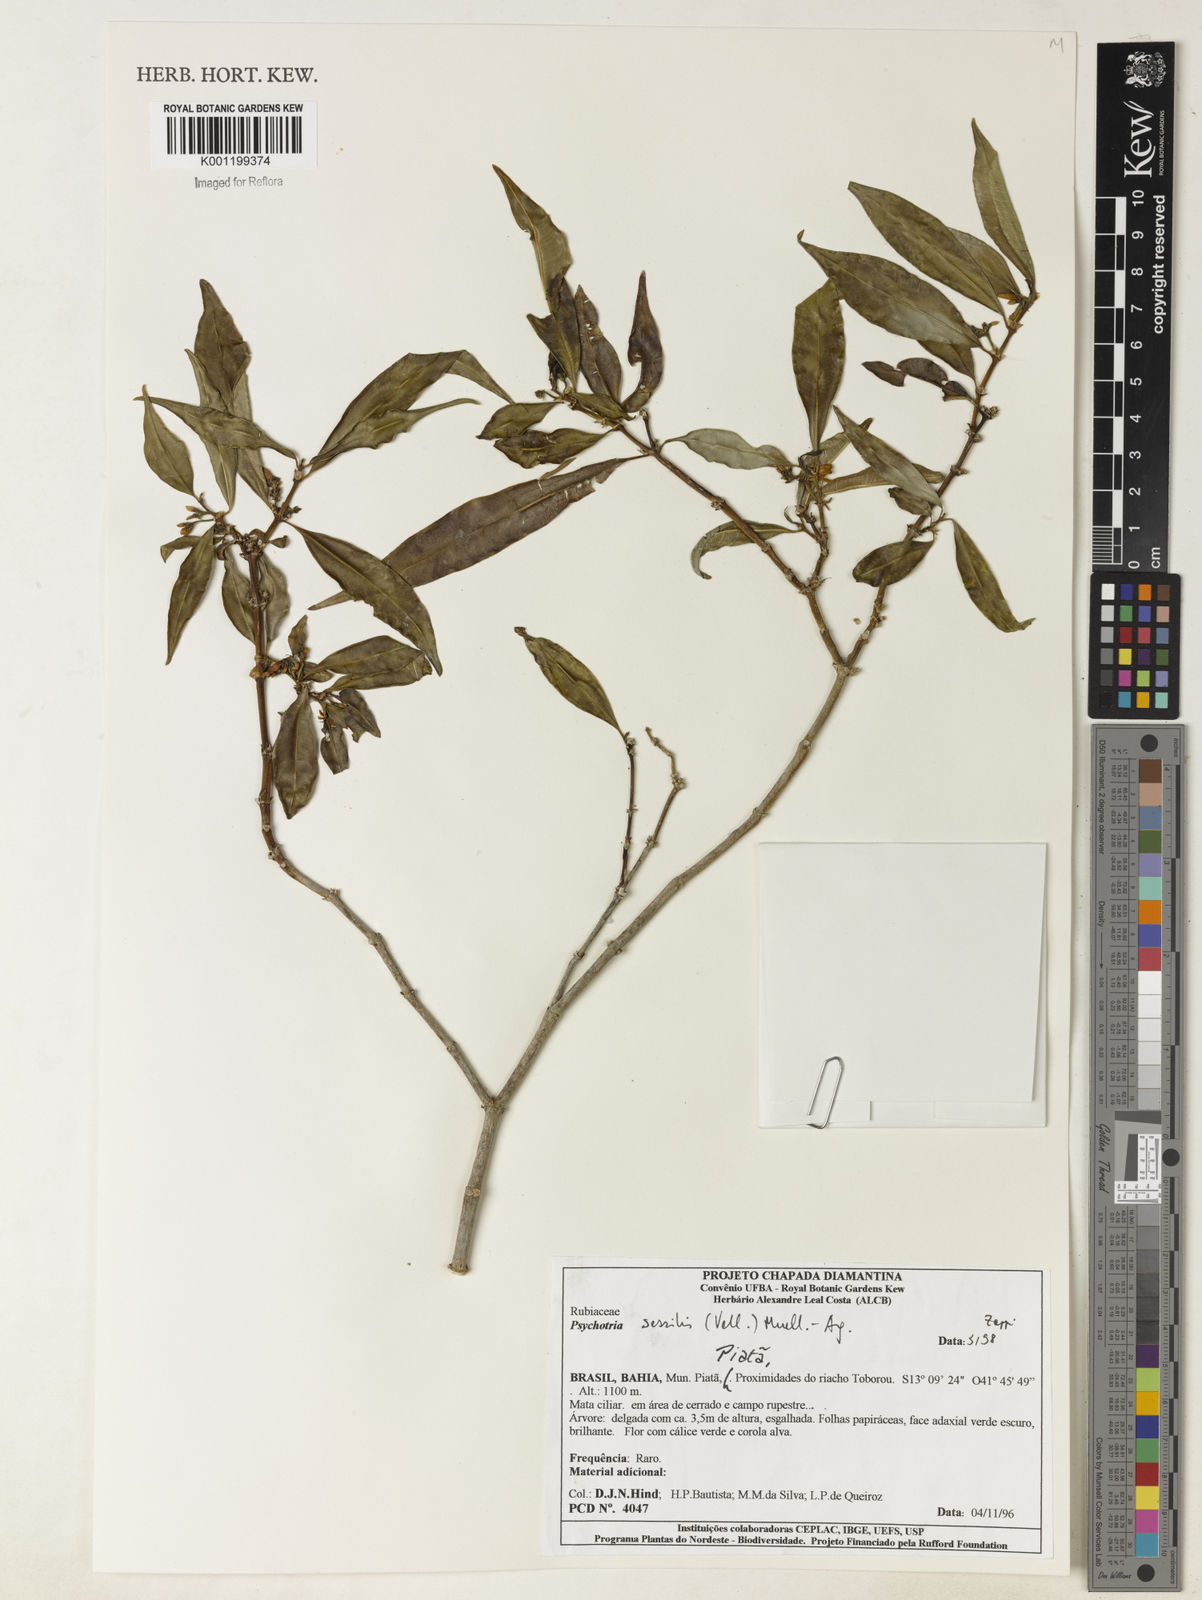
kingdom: Plantae
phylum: Tracheophyta
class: Magnoliopsida
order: Gentianales
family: Rubiaceae
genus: Rudgea
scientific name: Rudgea sessilis
